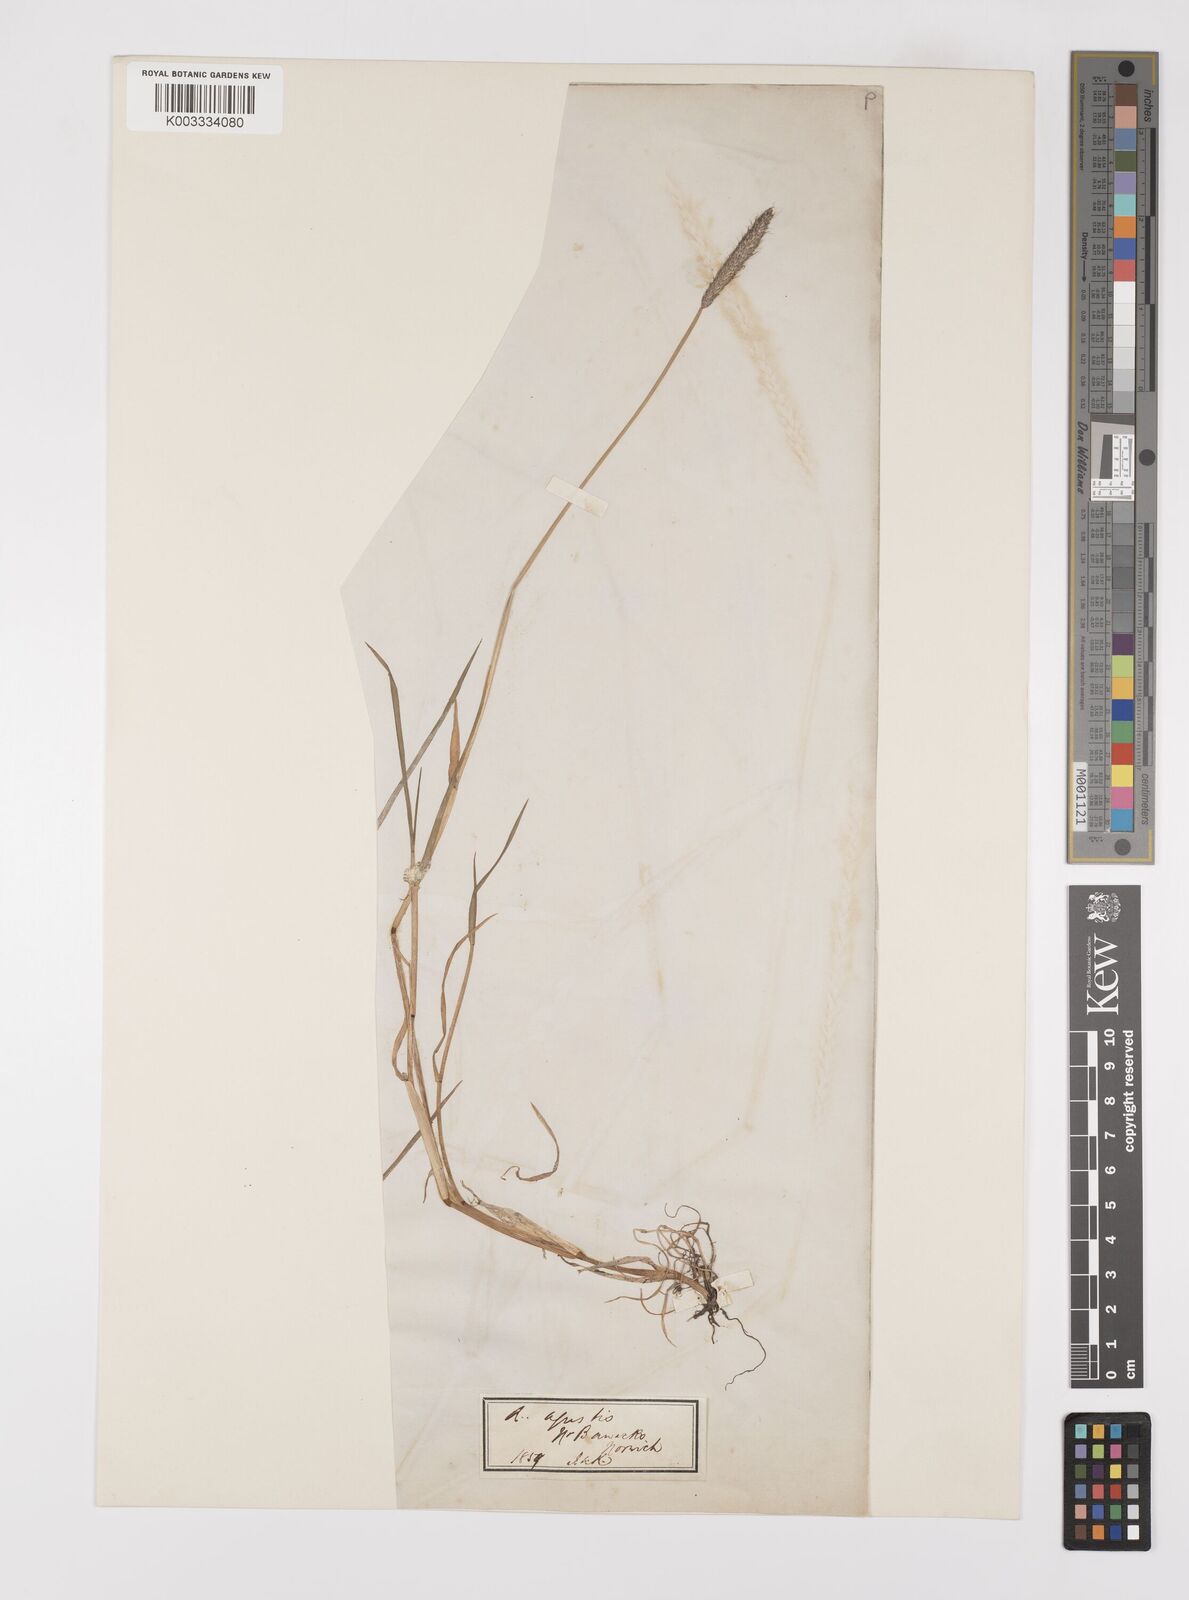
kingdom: Plantae
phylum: Tracheophyta
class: Liliopsida
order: Poales
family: Poaceae
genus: Alopecurus
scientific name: Alopecurus geniculatus
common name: Water foxtail
